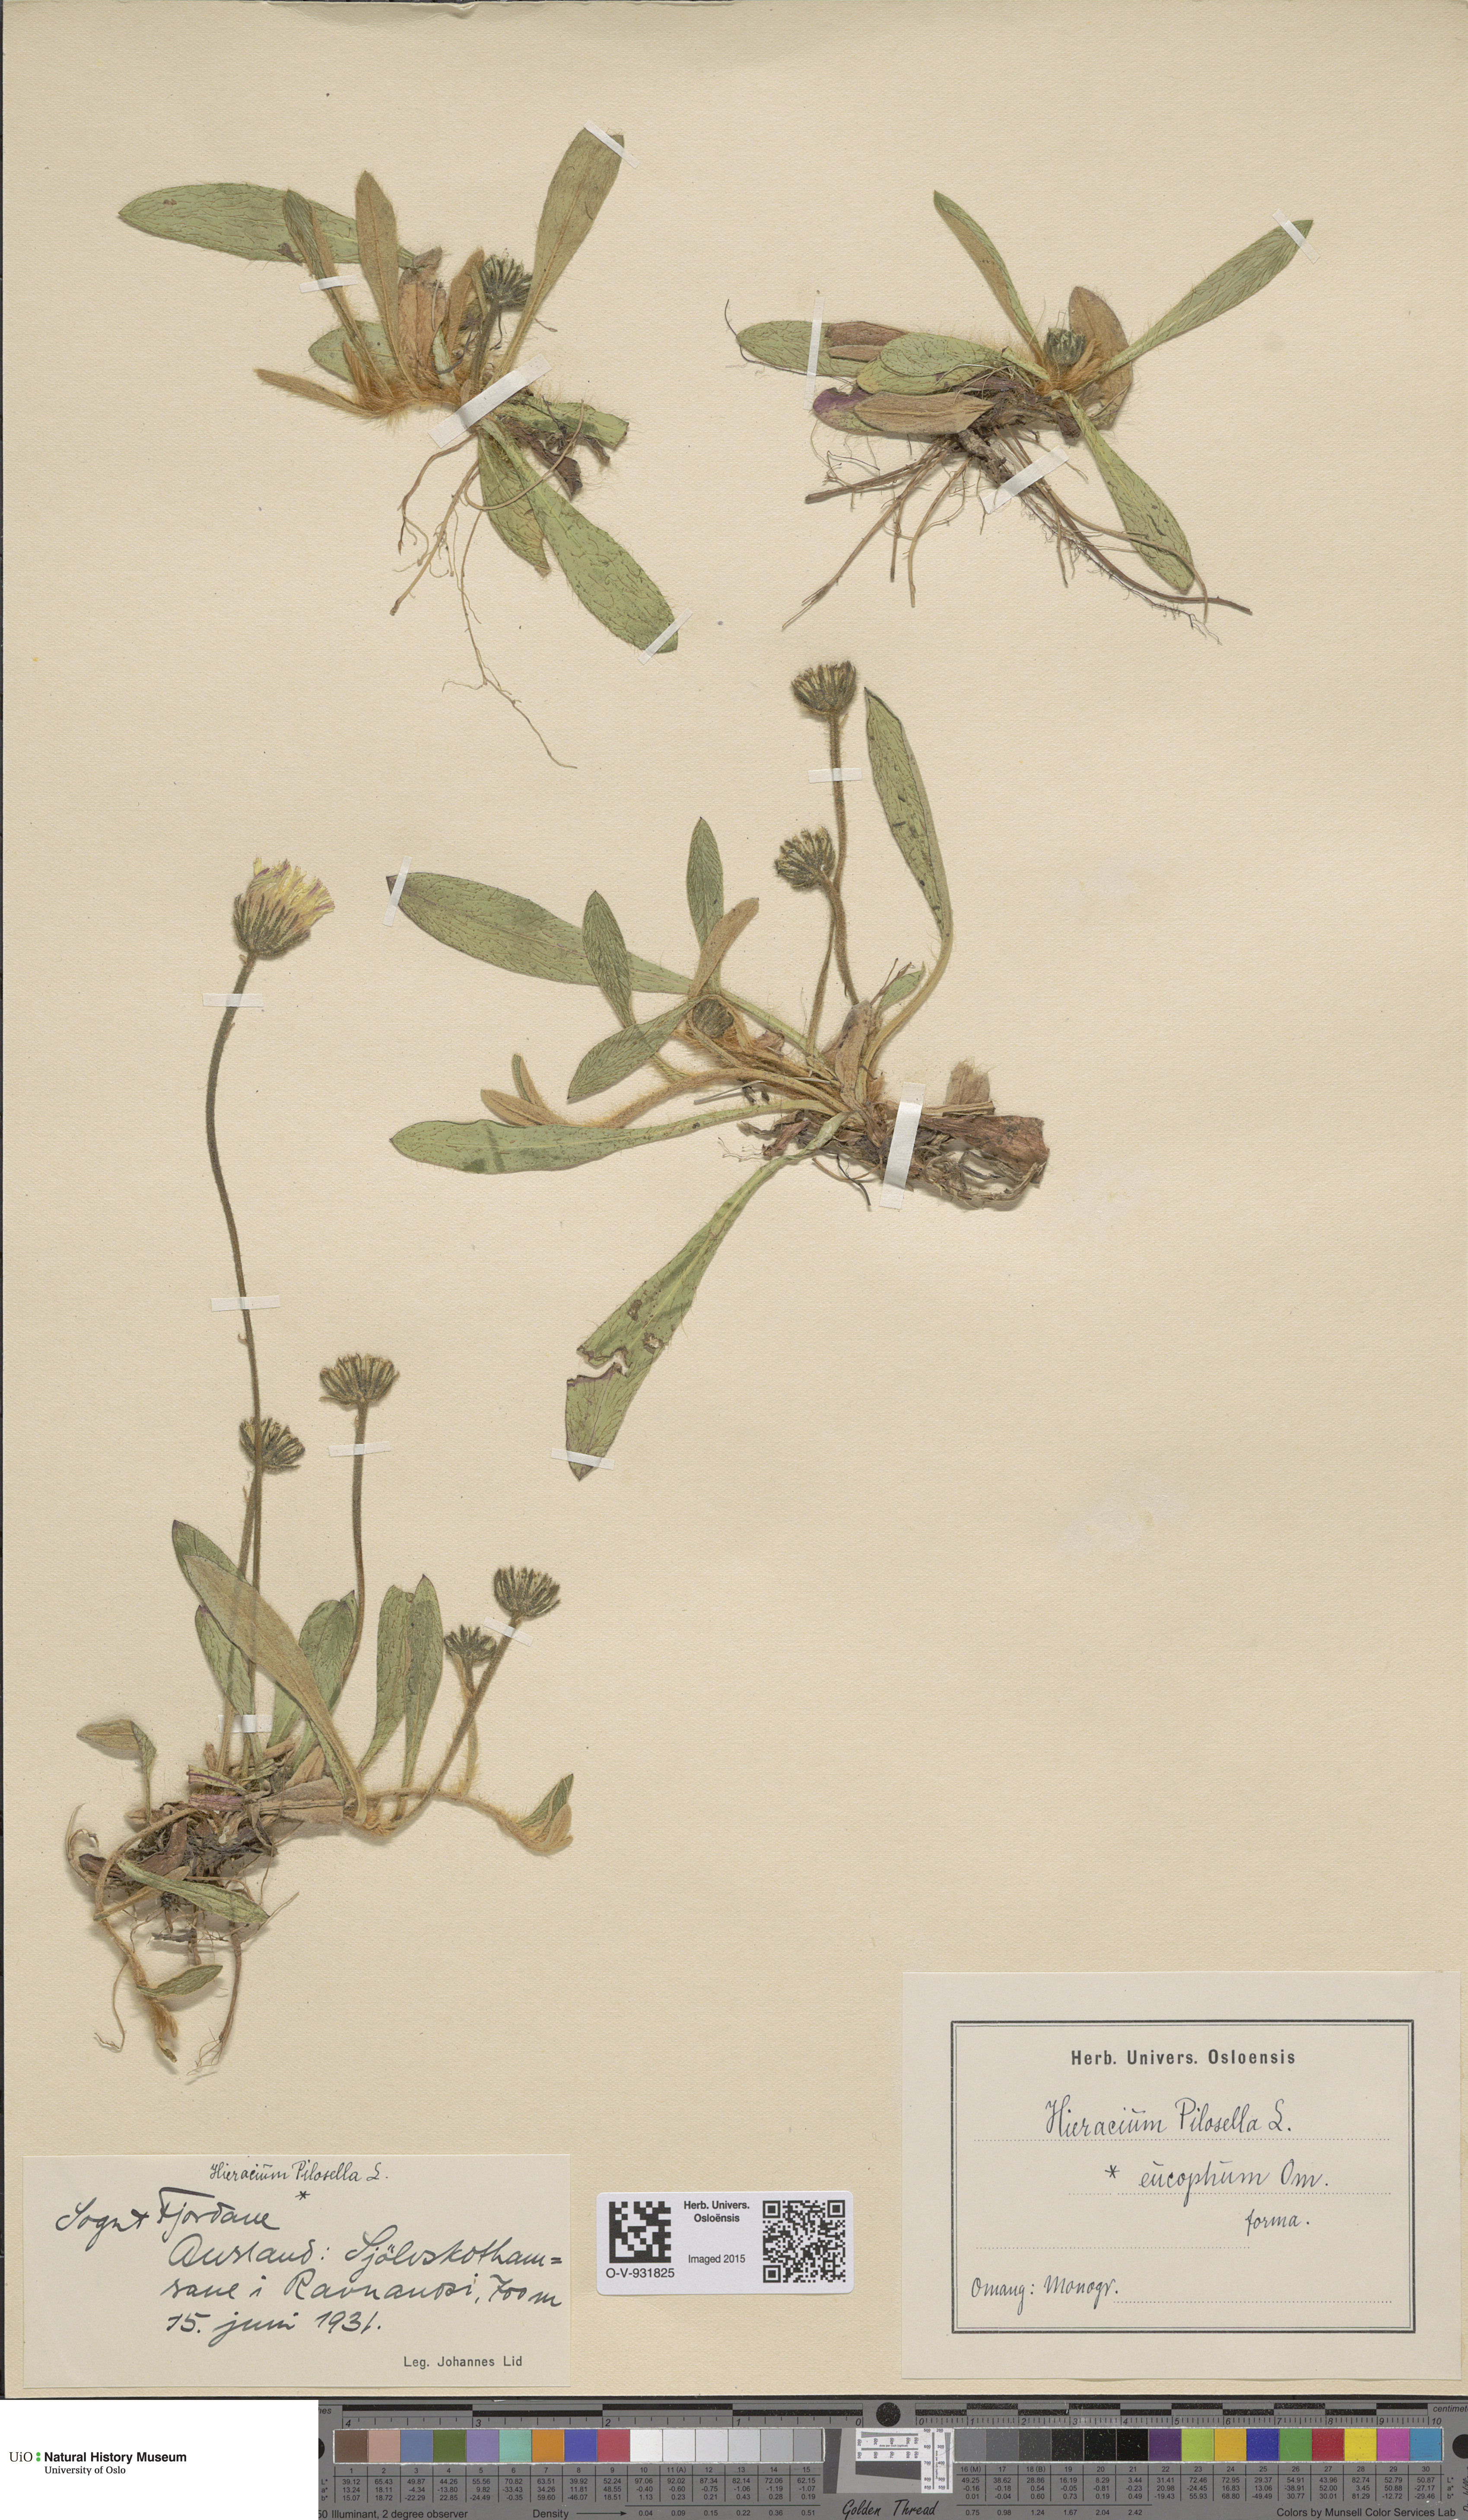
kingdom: Plantae
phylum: Tracheophyta
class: Magnoliopsida
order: Asterales
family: Asteraceae
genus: Pilosella
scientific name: Pilosella officinarum
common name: Mouse-ear hawkweed
